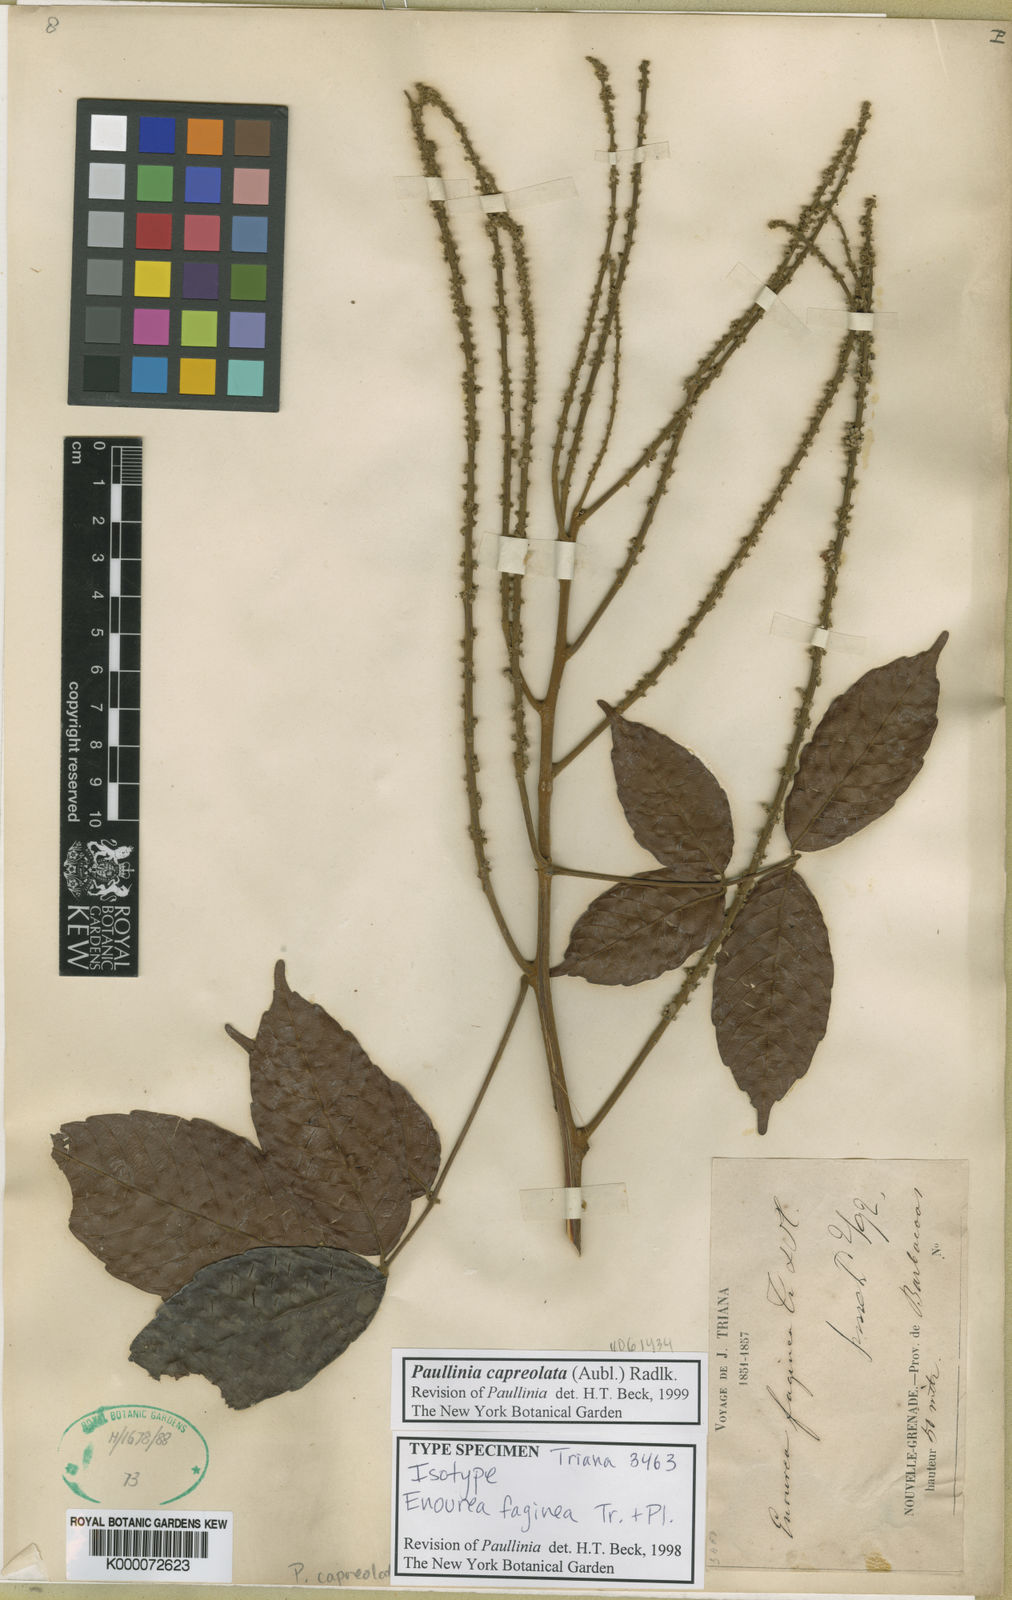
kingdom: Plantae
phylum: Tracheophyta
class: Magnoliopsida
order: Sapindales
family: Sapindaceae
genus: Paullinia
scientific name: Paullinia capreolata
